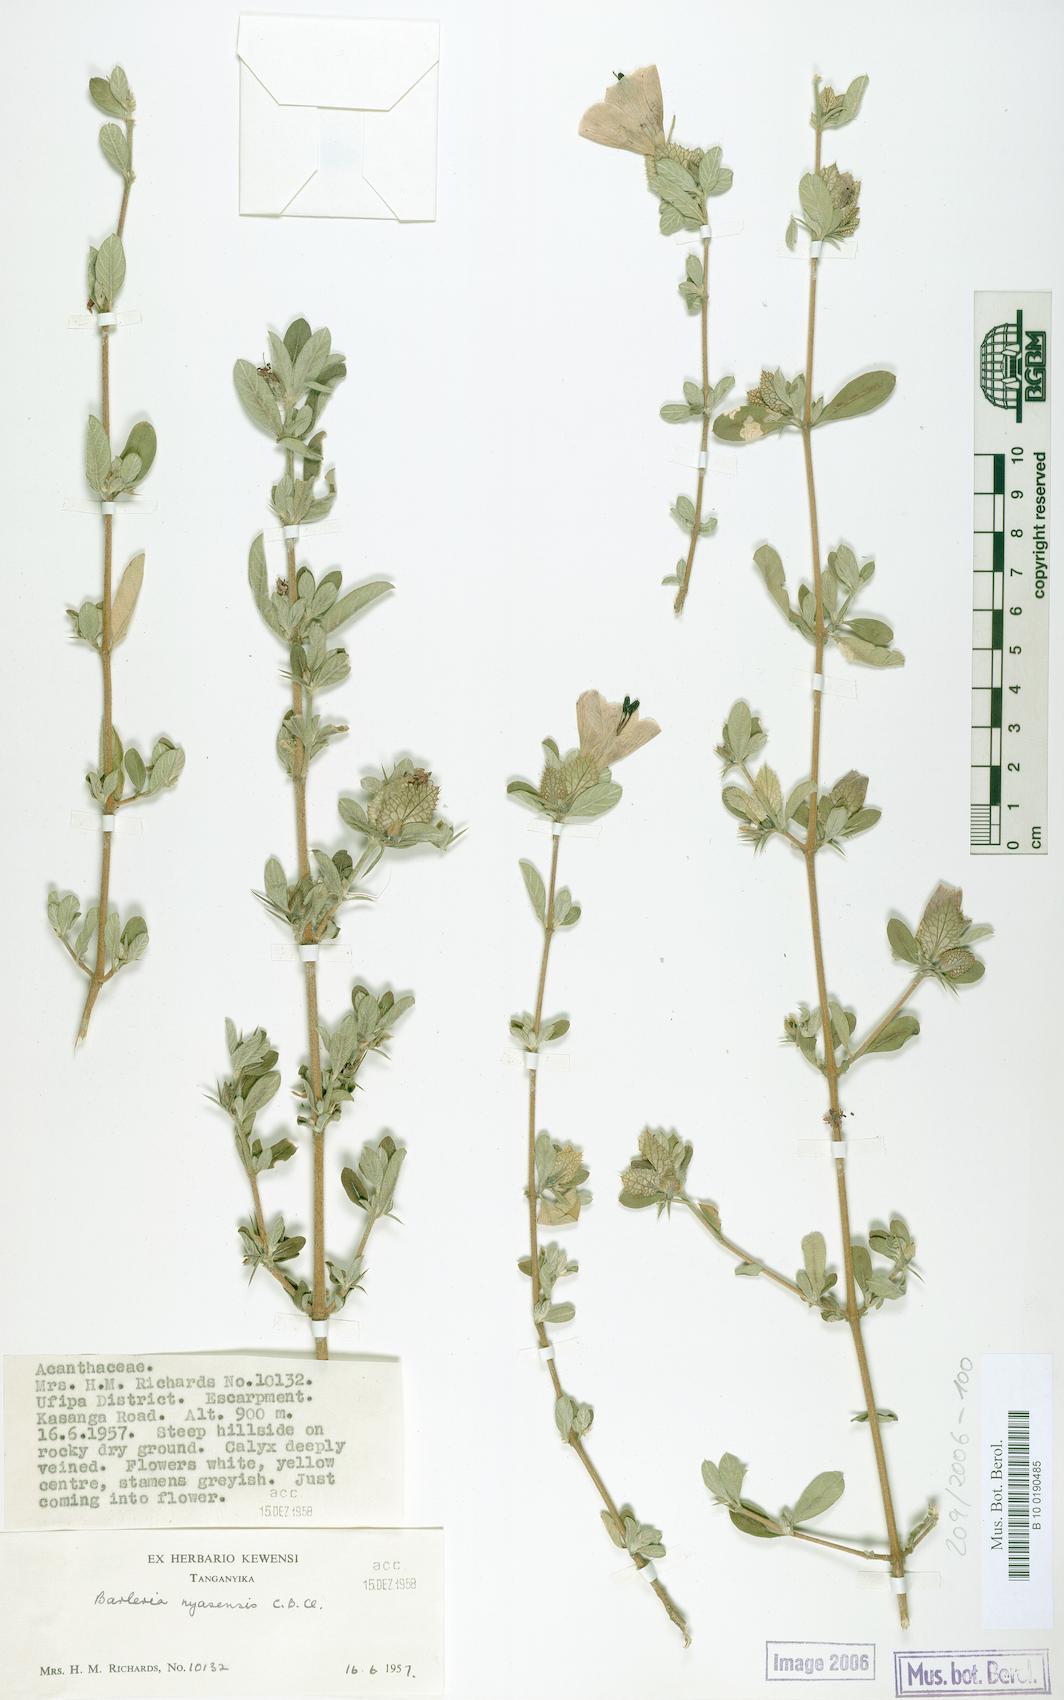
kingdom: Plantae
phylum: Tracheophyta
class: Magnoliopsida
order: Lamiales
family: Acanthaceae
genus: Barleria
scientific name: Barleria crassa
